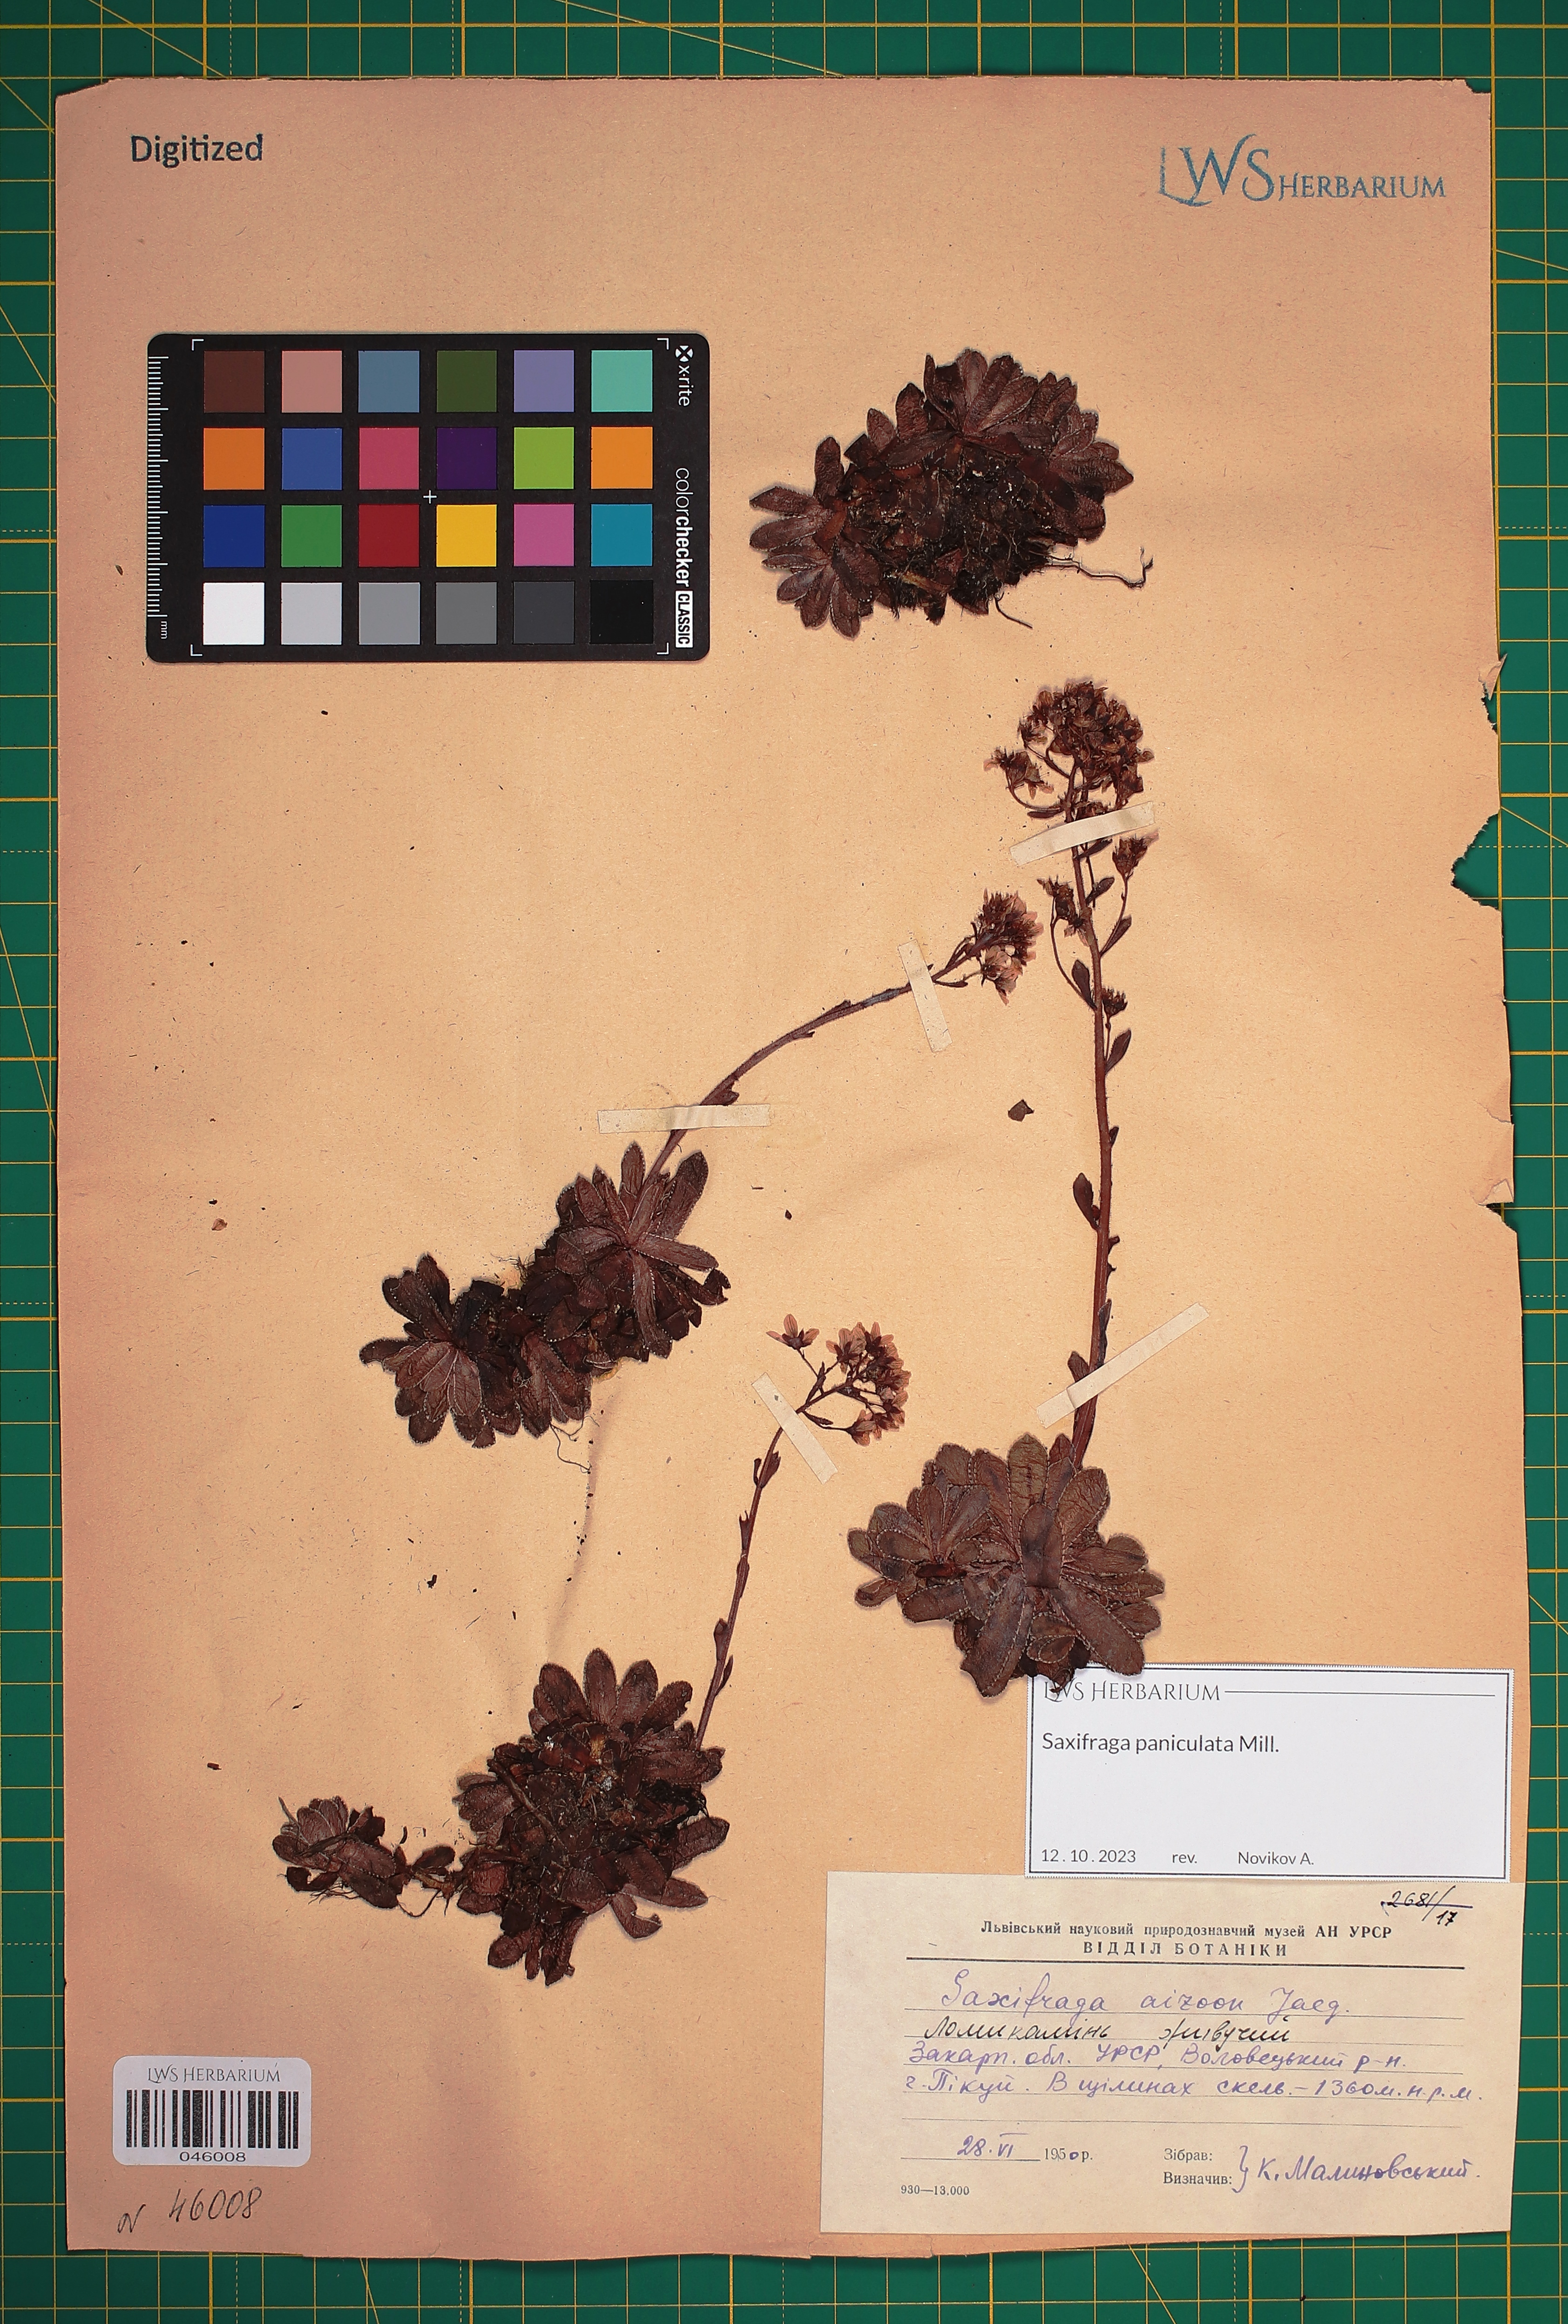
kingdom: Plantae
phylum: Tracheophyta
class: Magnoliopsida
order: Saxifragales
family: Saxifragaceae
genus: Saxifraga
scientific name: Saxifraga paniculata
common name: Livelong saxifrage
